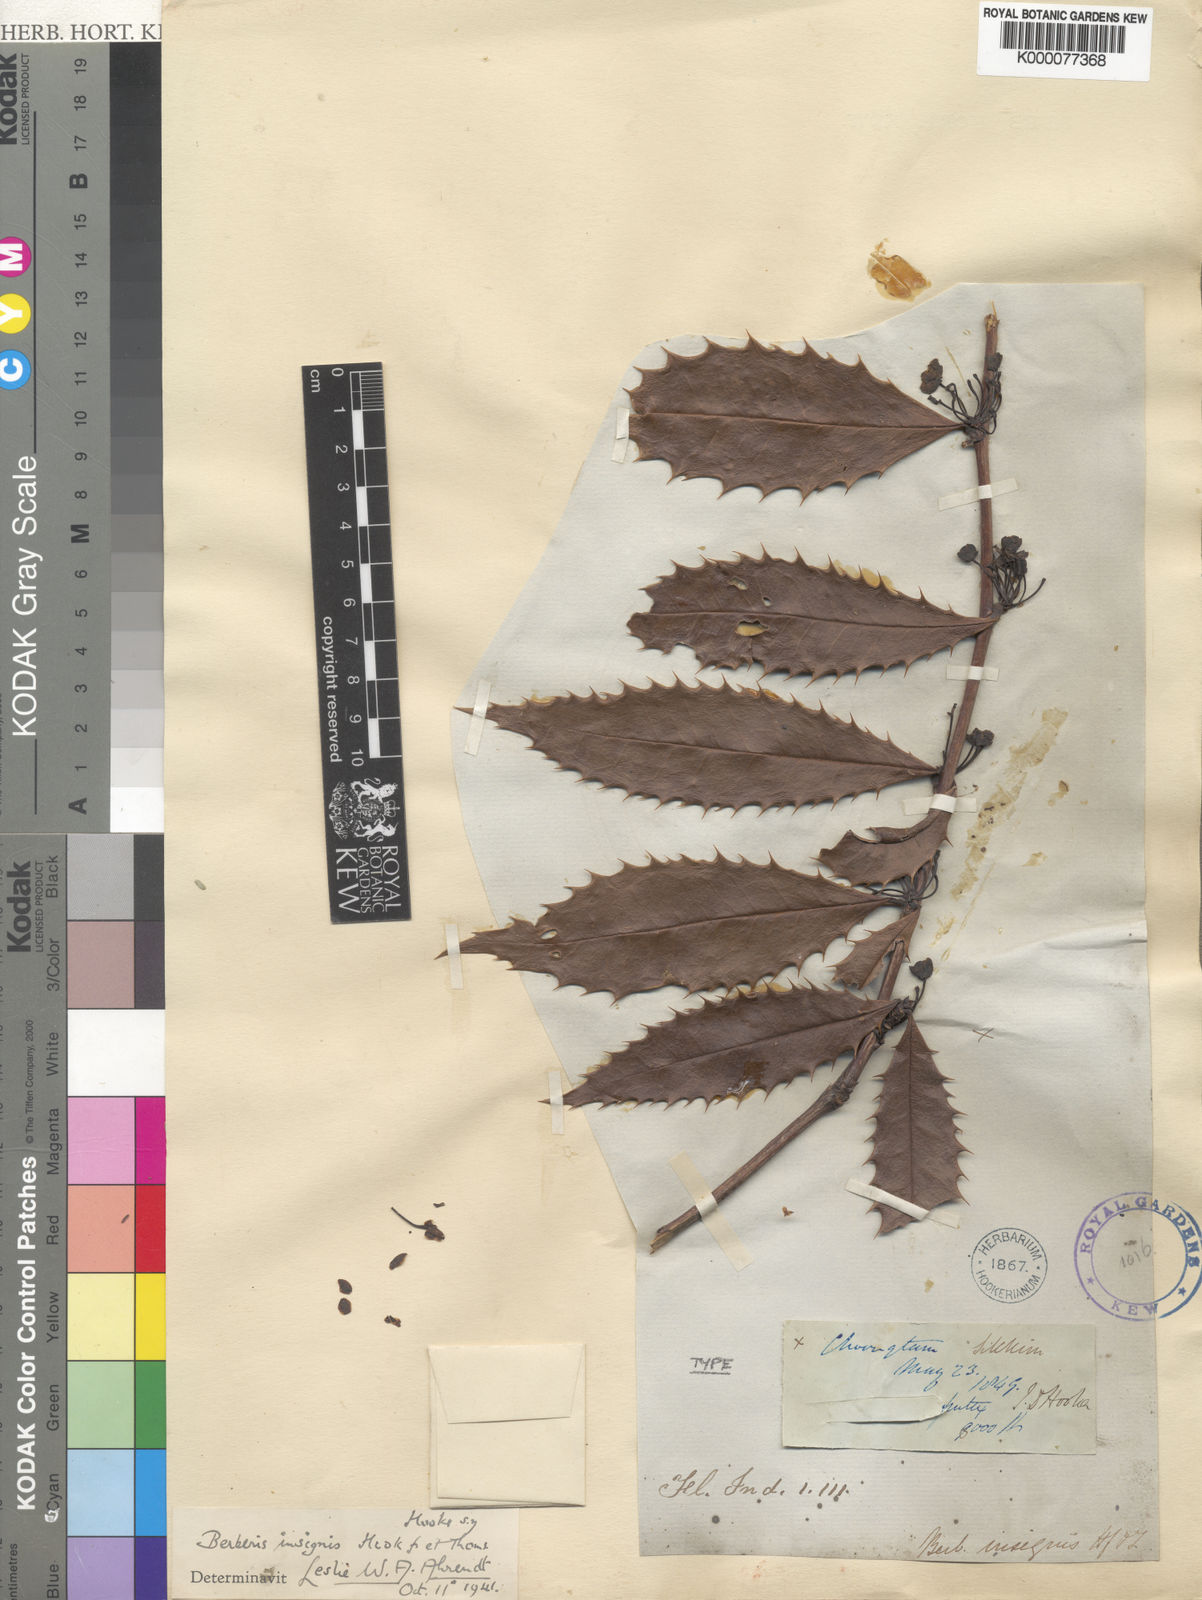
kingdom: Plantae
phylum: Tracheophyta
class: Magnoliopsida
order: Ranunculales
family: Berberidaceae
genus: Berberis
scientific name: Berberis insignis
